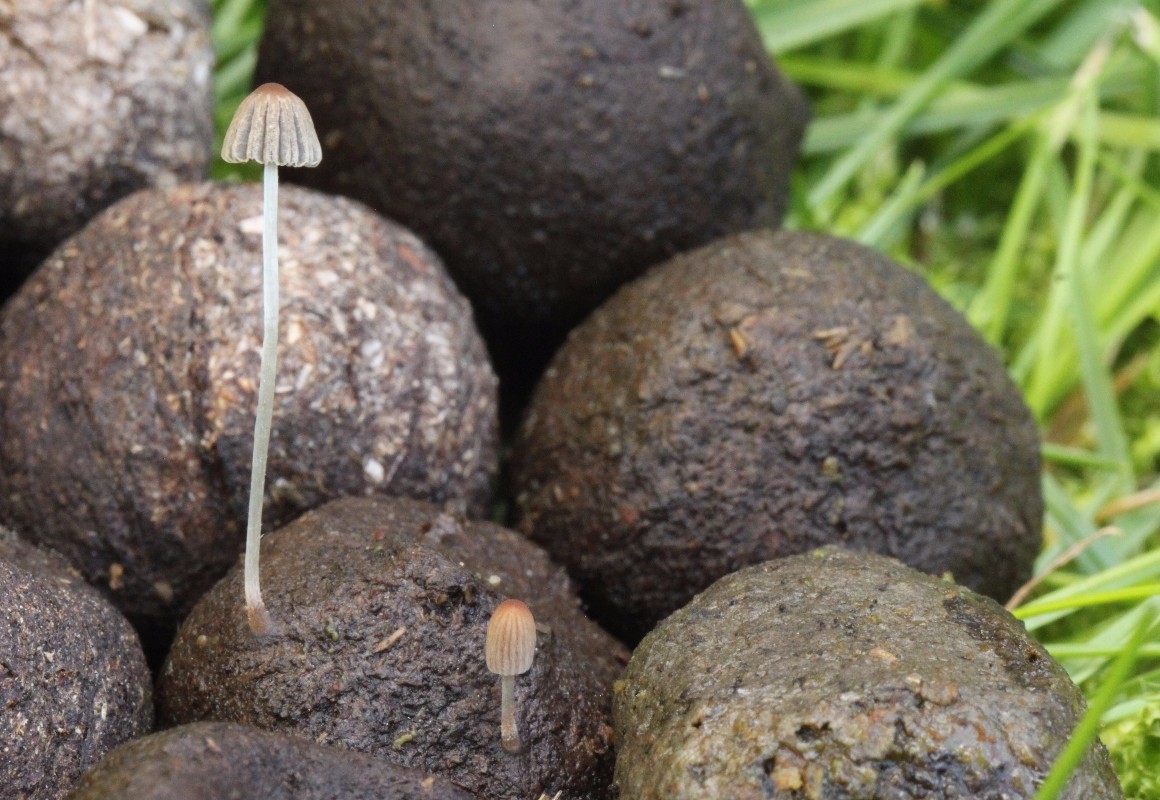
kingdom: Fungi
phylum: Basidiomycota
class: Agaricomycetes
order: Agaricales
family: Psathyrellaceae
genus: Parasola
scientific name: Parasola misera
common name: lillebitte hjulhat
